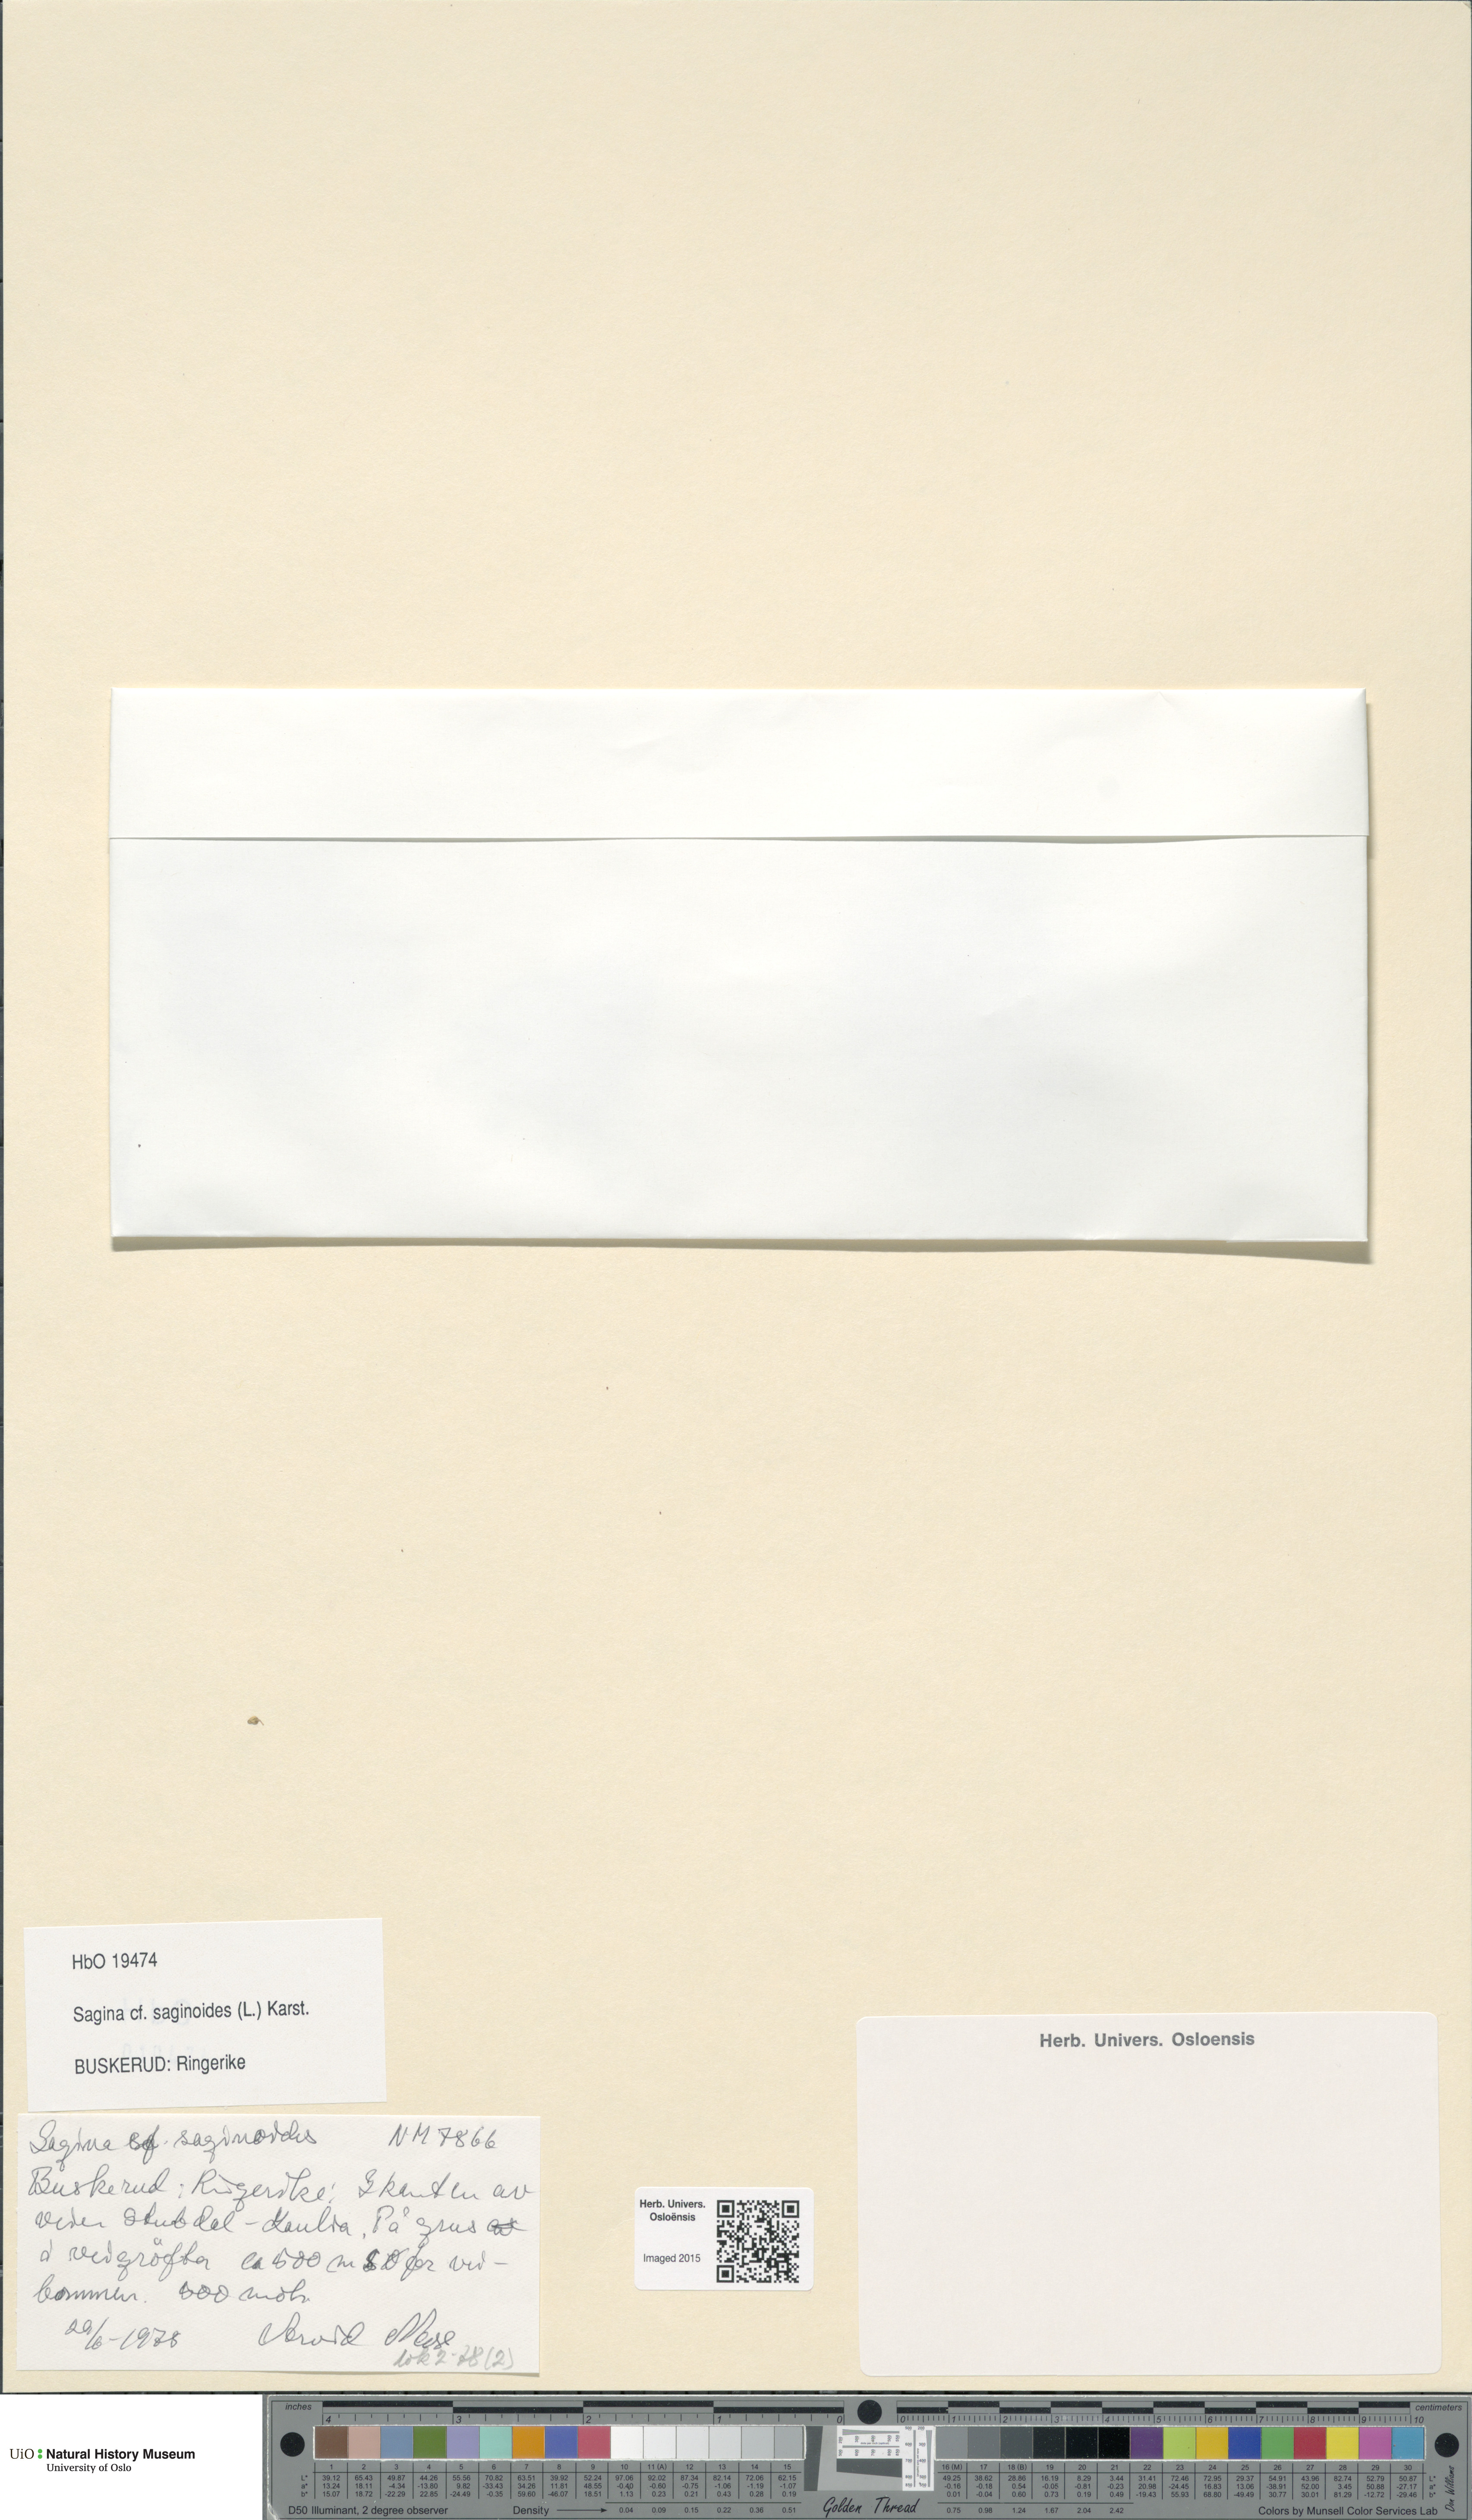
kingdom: Plantae
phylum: Tracheophyta
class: Magnoliopsida
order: Caryophyllales
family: Caryophyllaceae
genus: Sagina
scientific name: Sagina saginoides
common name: Alpine pearlwort
